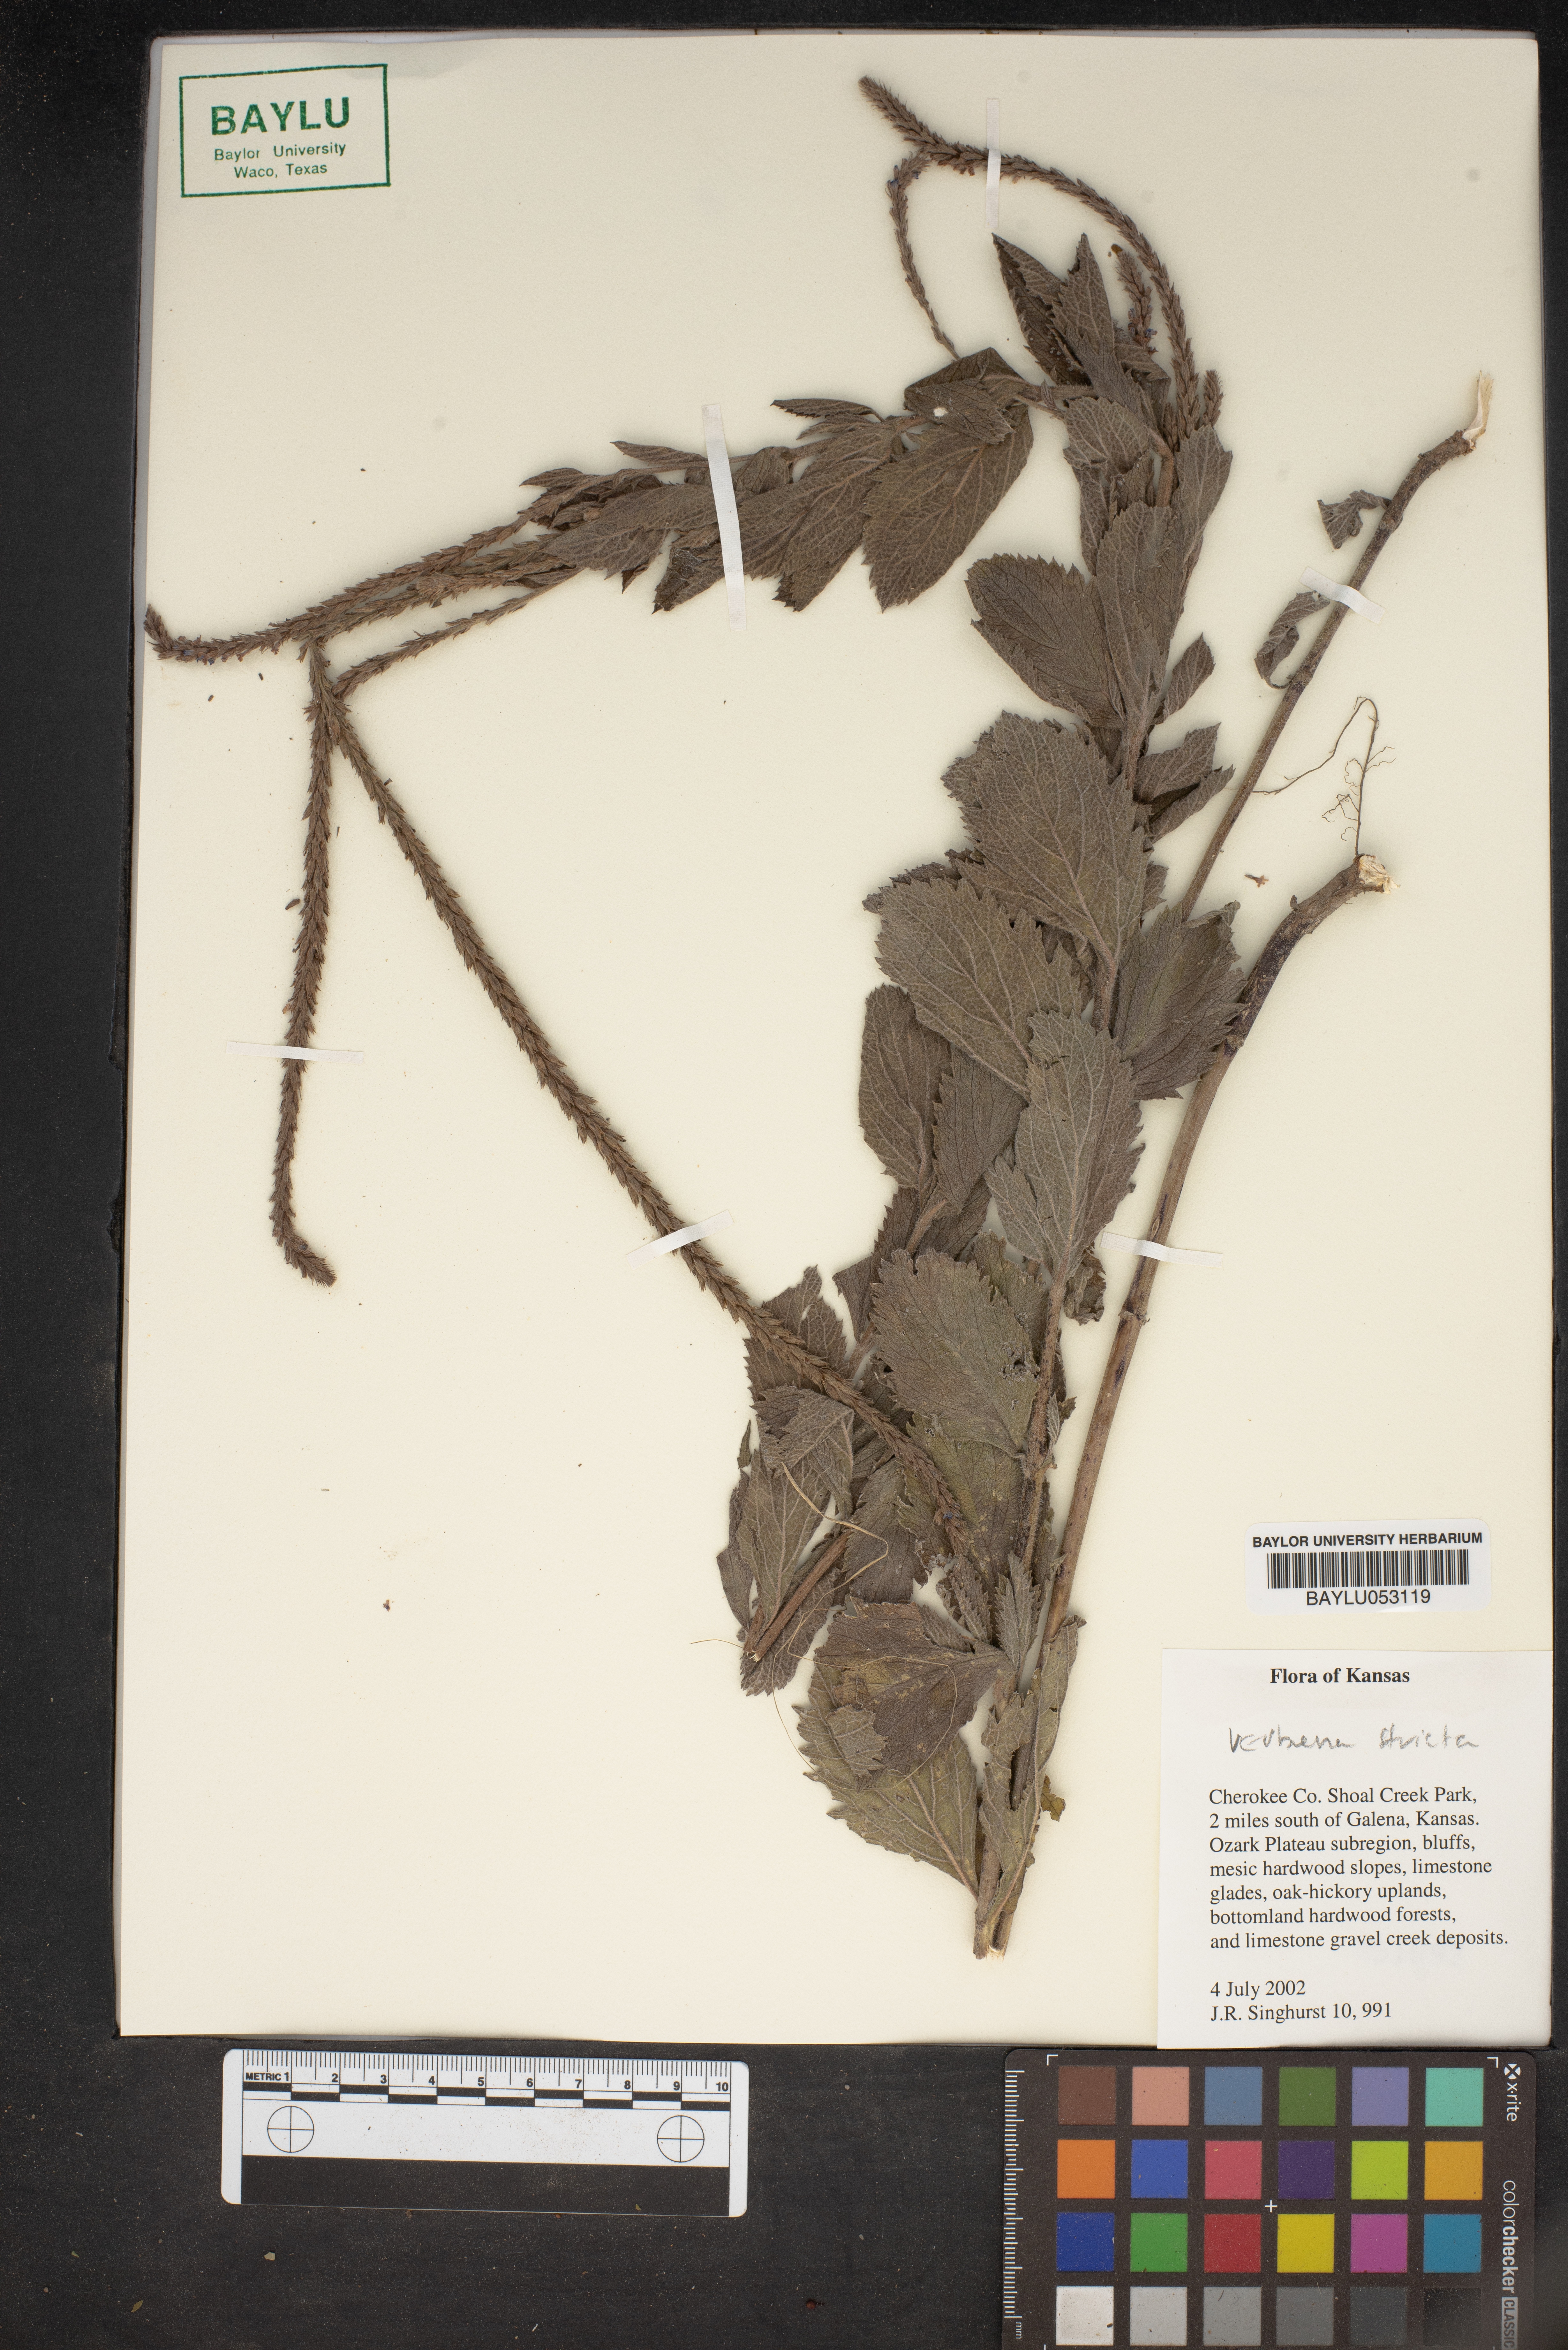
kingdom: Plantae
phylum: Tracheophyta
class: Magnoliopsida
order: Lamiales
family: Verbenaceae
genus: Verbena
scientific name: Verbena stricta
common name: Hoary vervain
